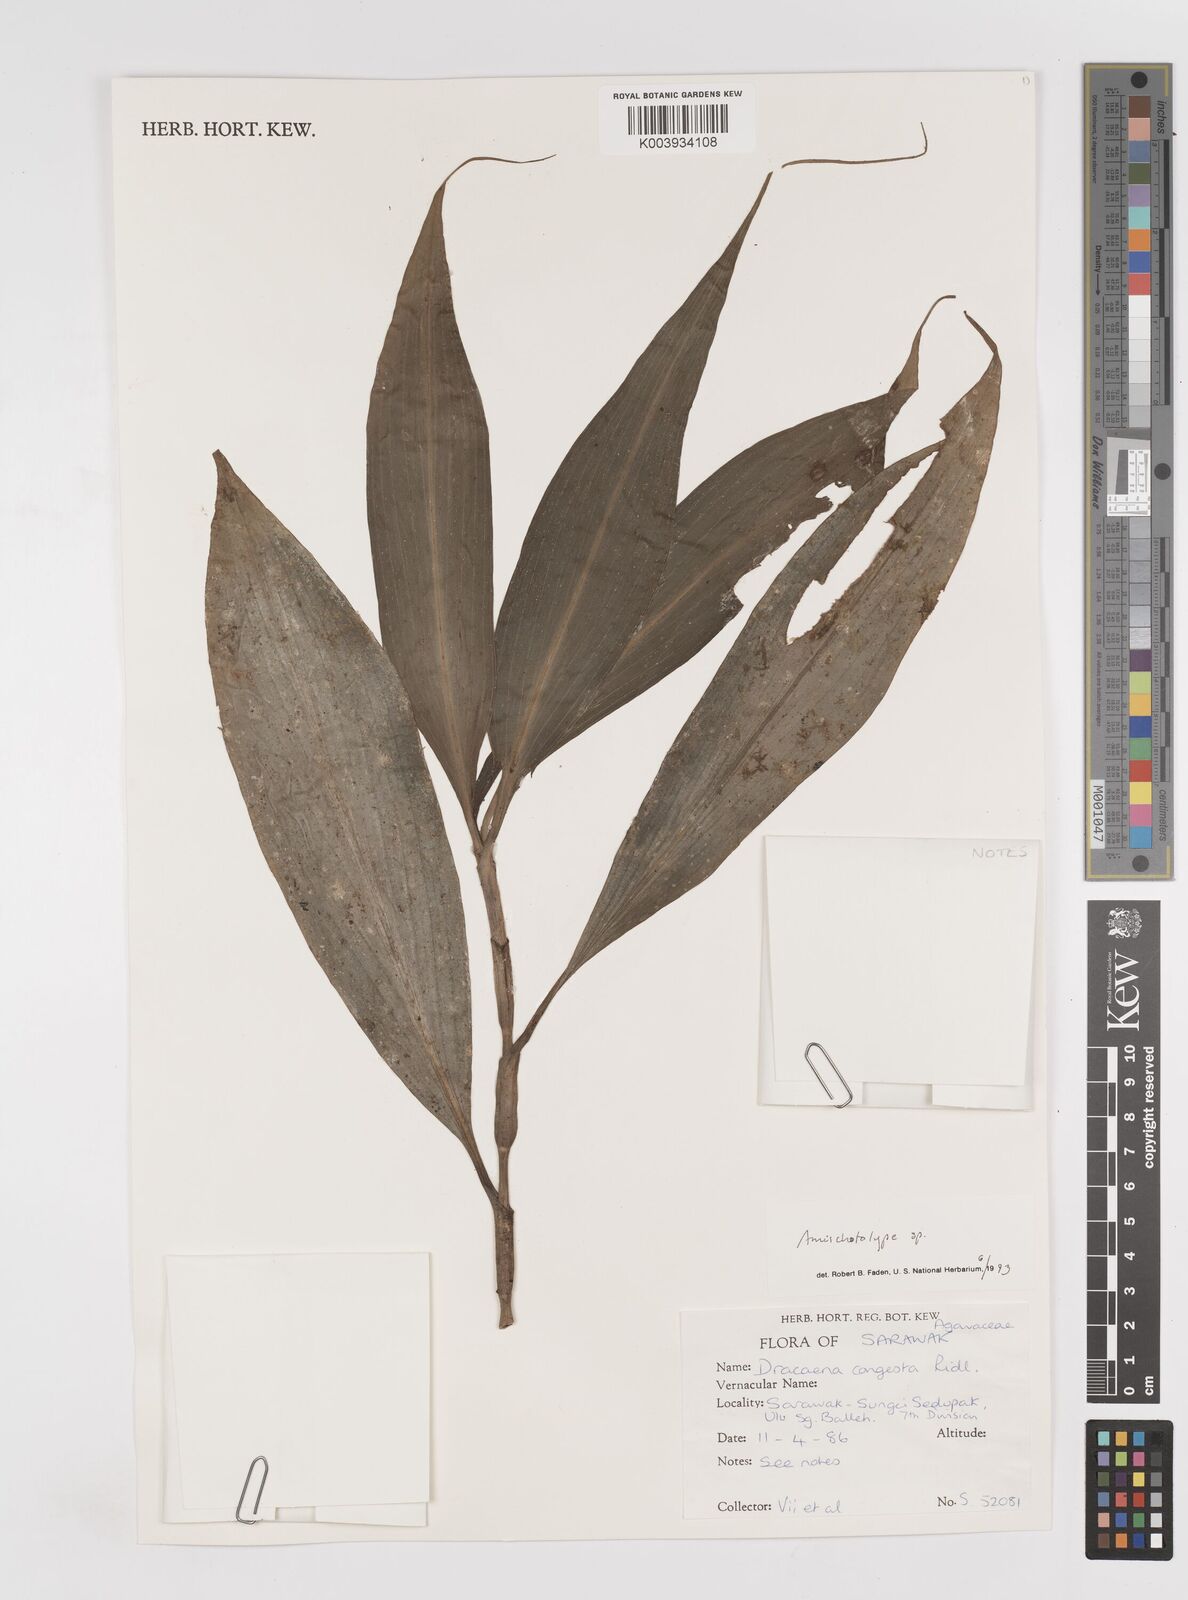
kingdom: Plantae
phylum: Tracheophyta
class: Liliopsida
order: Commelinales
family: Commelinaceae
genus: Amischotolype
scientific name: Amischotolype
